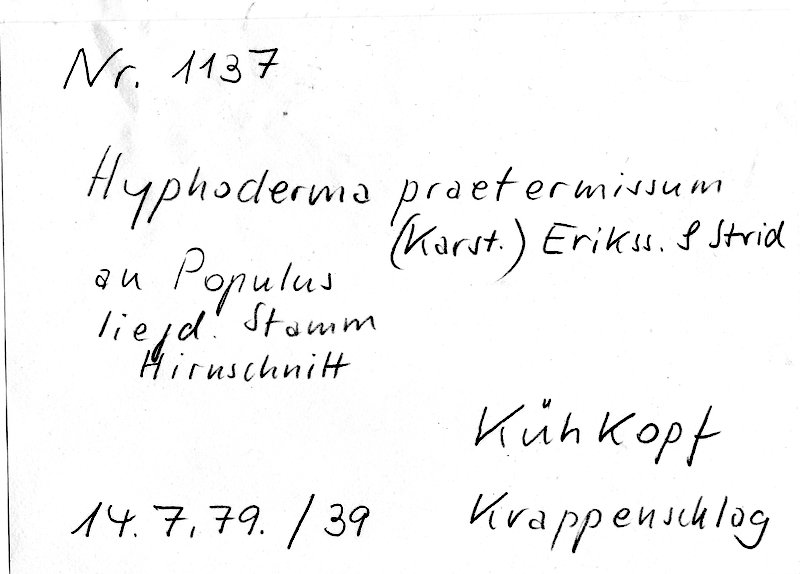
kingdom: Fungi
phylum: Basidiomycota
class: Agaricomycetes
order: Hymenochaetales
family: Rickenellaceae
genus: Peniophorella
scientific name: Peniophorella praetermissa
